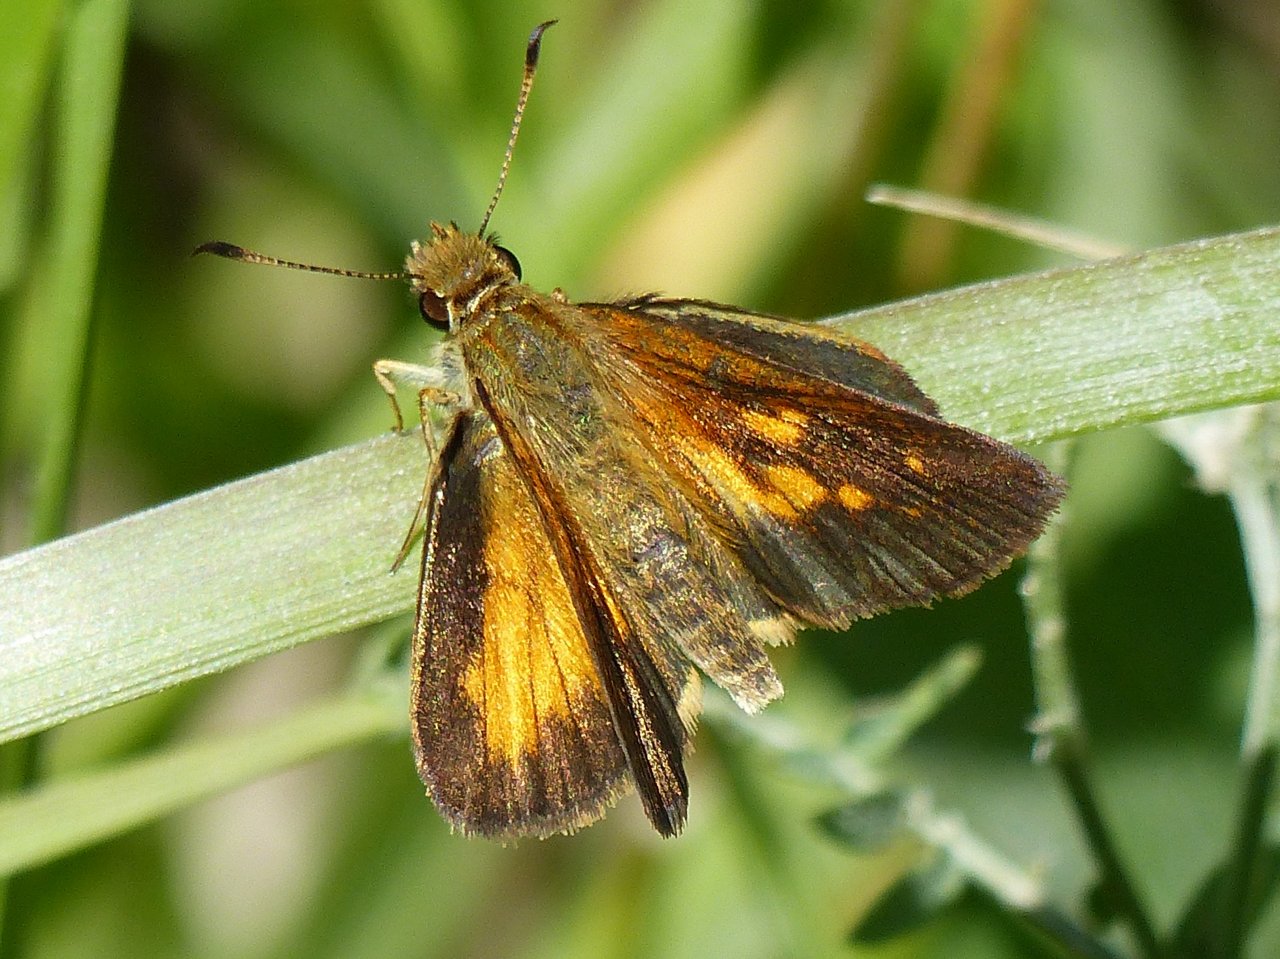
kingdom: Animalia
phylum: Arthropoda
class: Insecta
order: Lepidoptera
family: Hesperiidae
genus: Poanes
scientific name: Poanes viator
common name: Broad-winged Skipper
